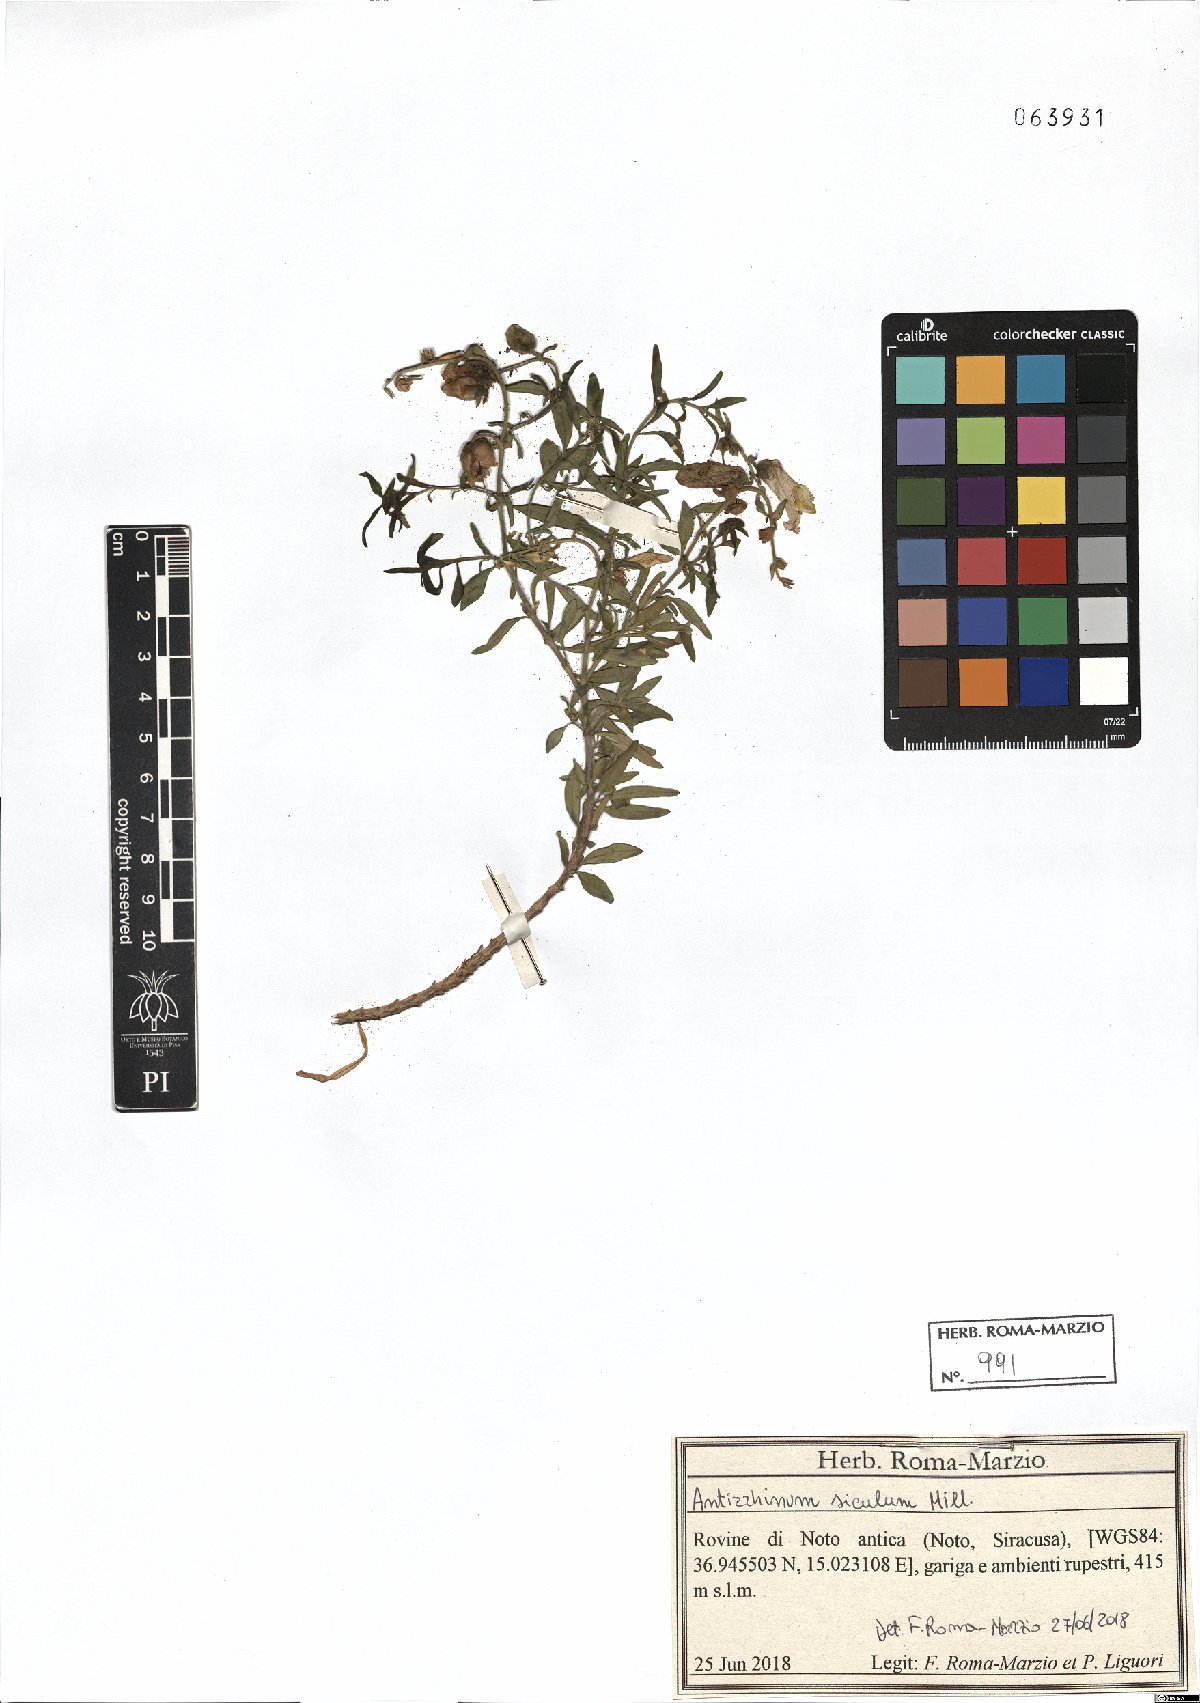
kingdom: Plantae
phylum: Tracheophyta
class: Magnoliopsida
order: Lamiales
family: Plantaginaceae
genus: Antirrhinum
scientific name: Antirrhinum siculum
